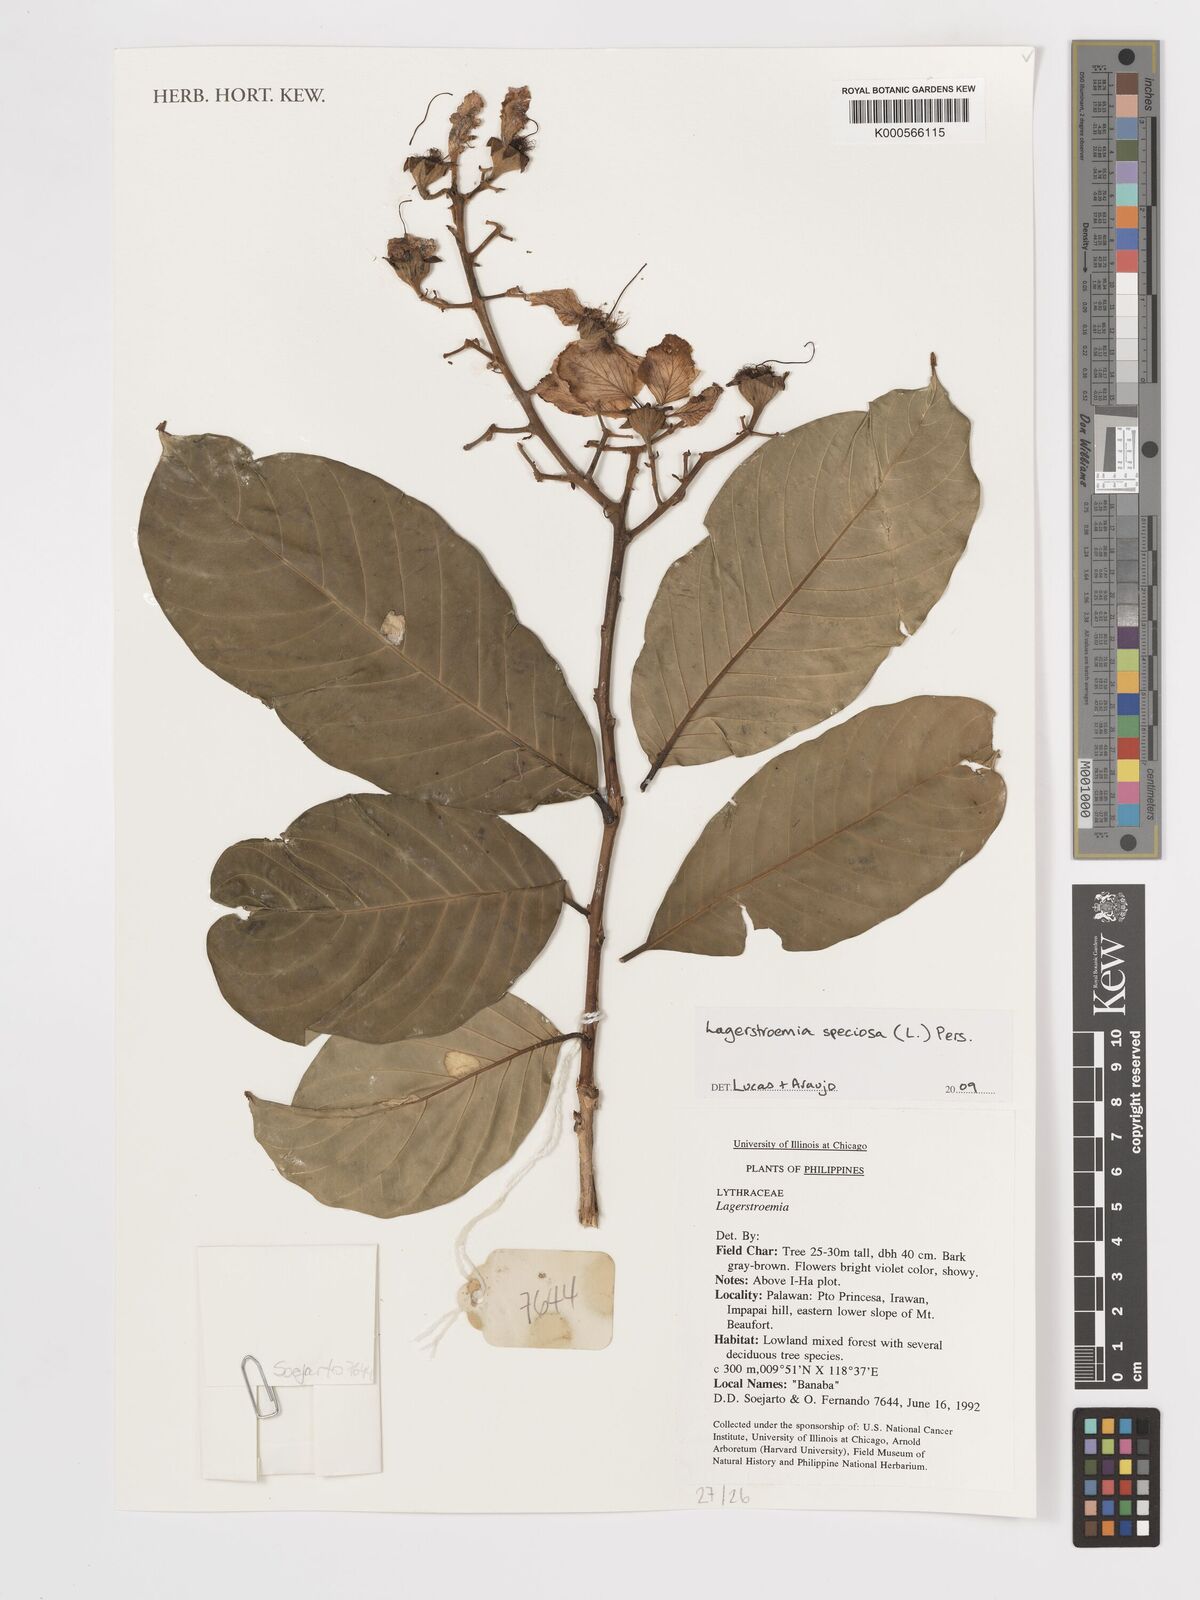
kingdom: Plantae
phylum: Tracheophyta
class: Magnoliopsida
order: Myrtales
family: Lythraceae
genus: Lagerstroemia
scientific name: Lagerstroemia speciosa
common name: Queen's crape-myrtle
